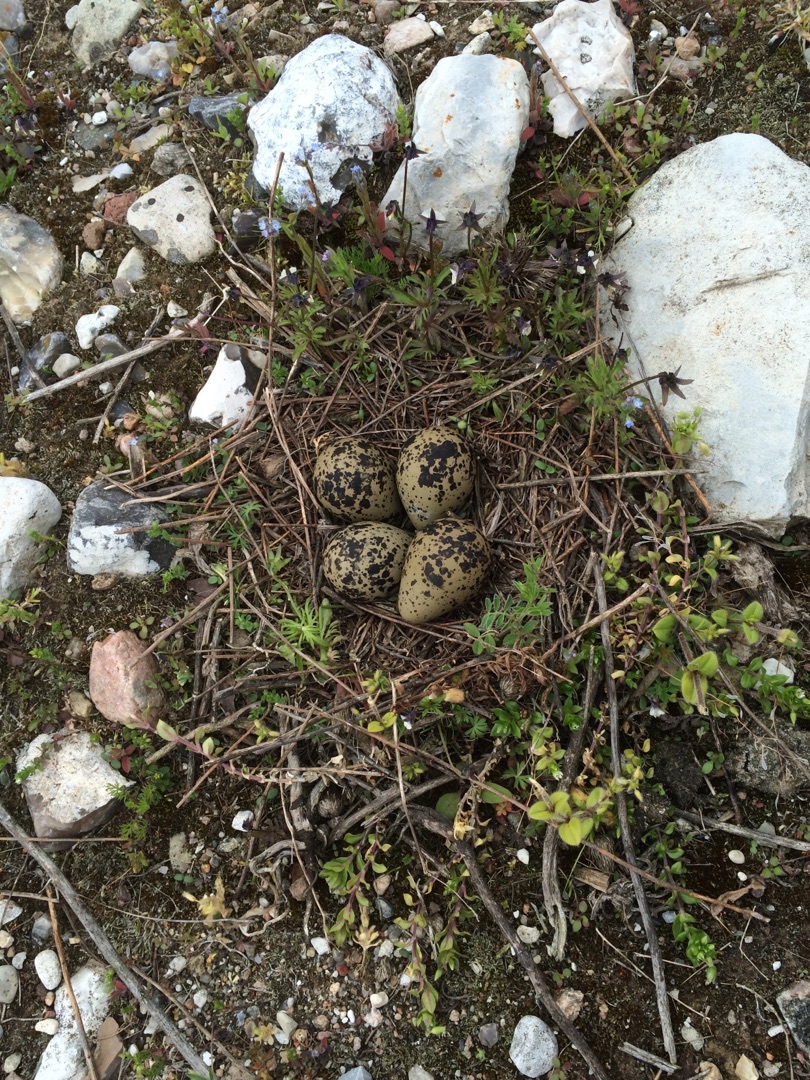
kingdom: Animalia
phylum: Chordata
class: Aves
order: Charadriiformes
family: Charadriidae
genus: Vanellus
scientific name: Vanellus vanellus
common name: Vibe
